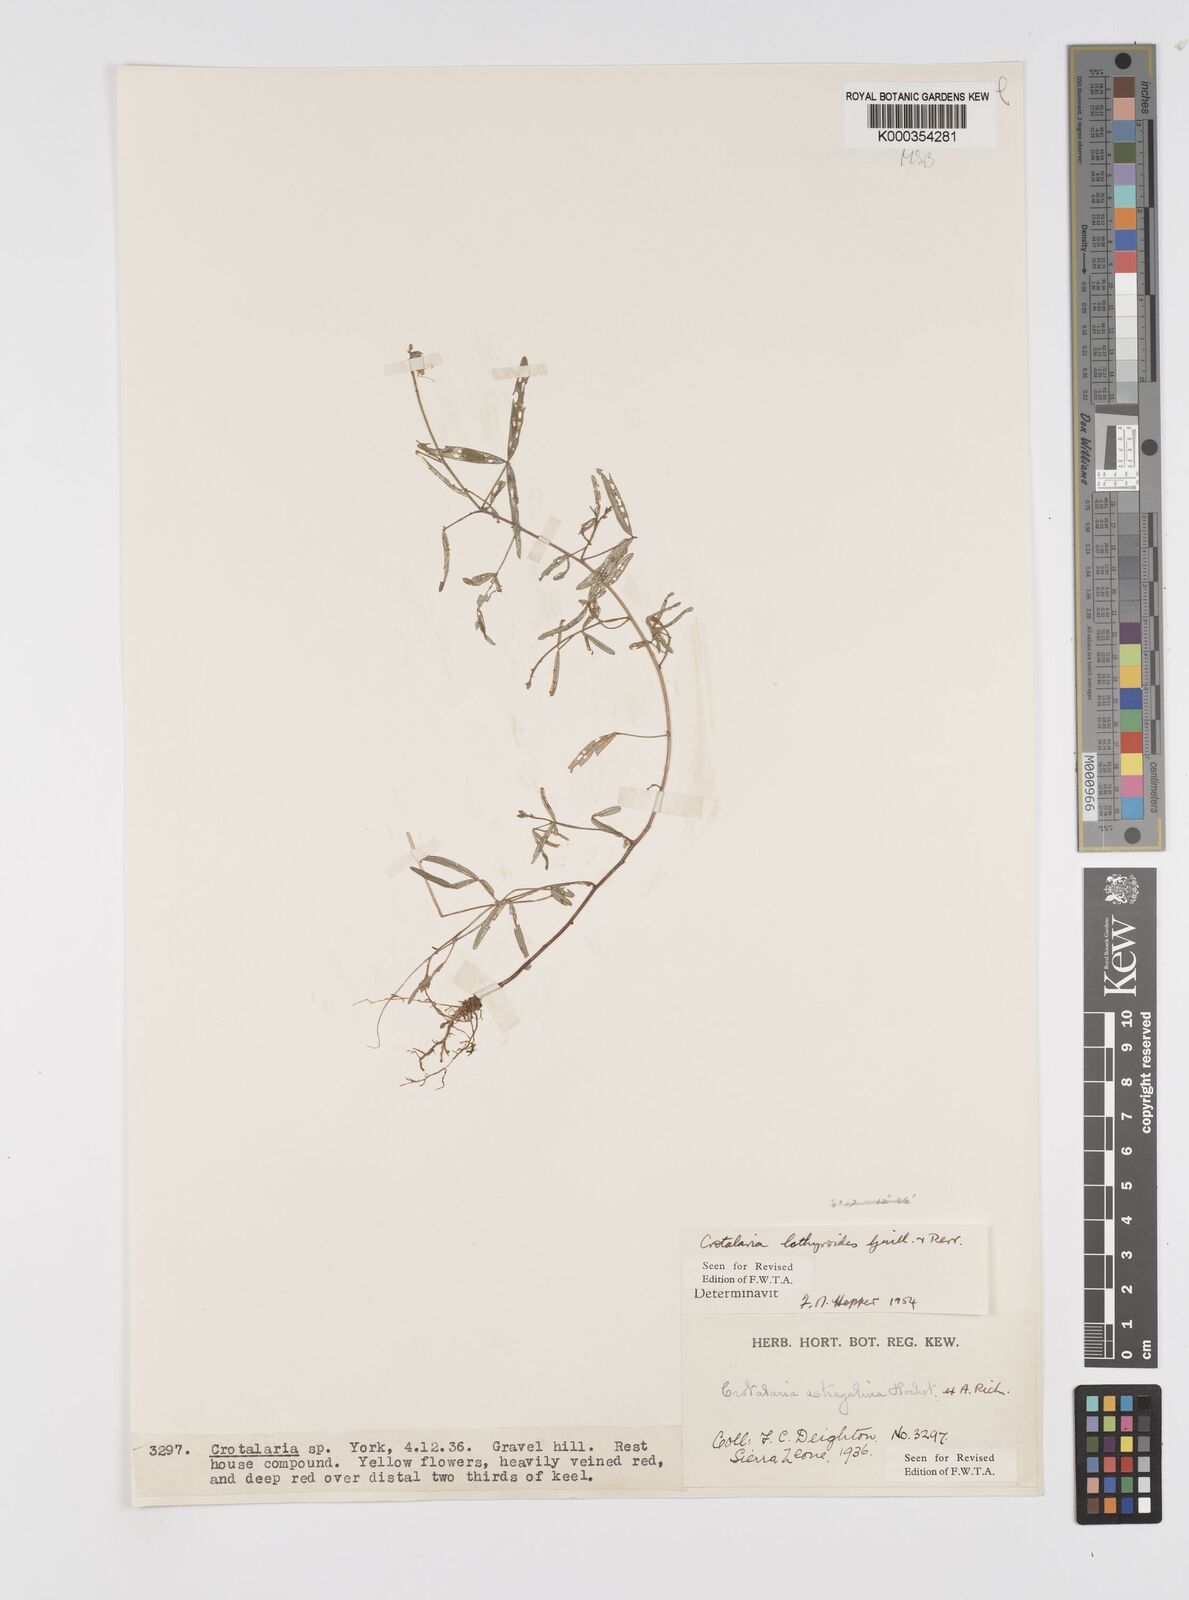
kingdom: Plantae
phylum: Tracheophyta
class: Magnoliopsida
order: Fabales
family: Fabaceae
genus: Crotalaria
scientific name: Crotalaria lathyroides
